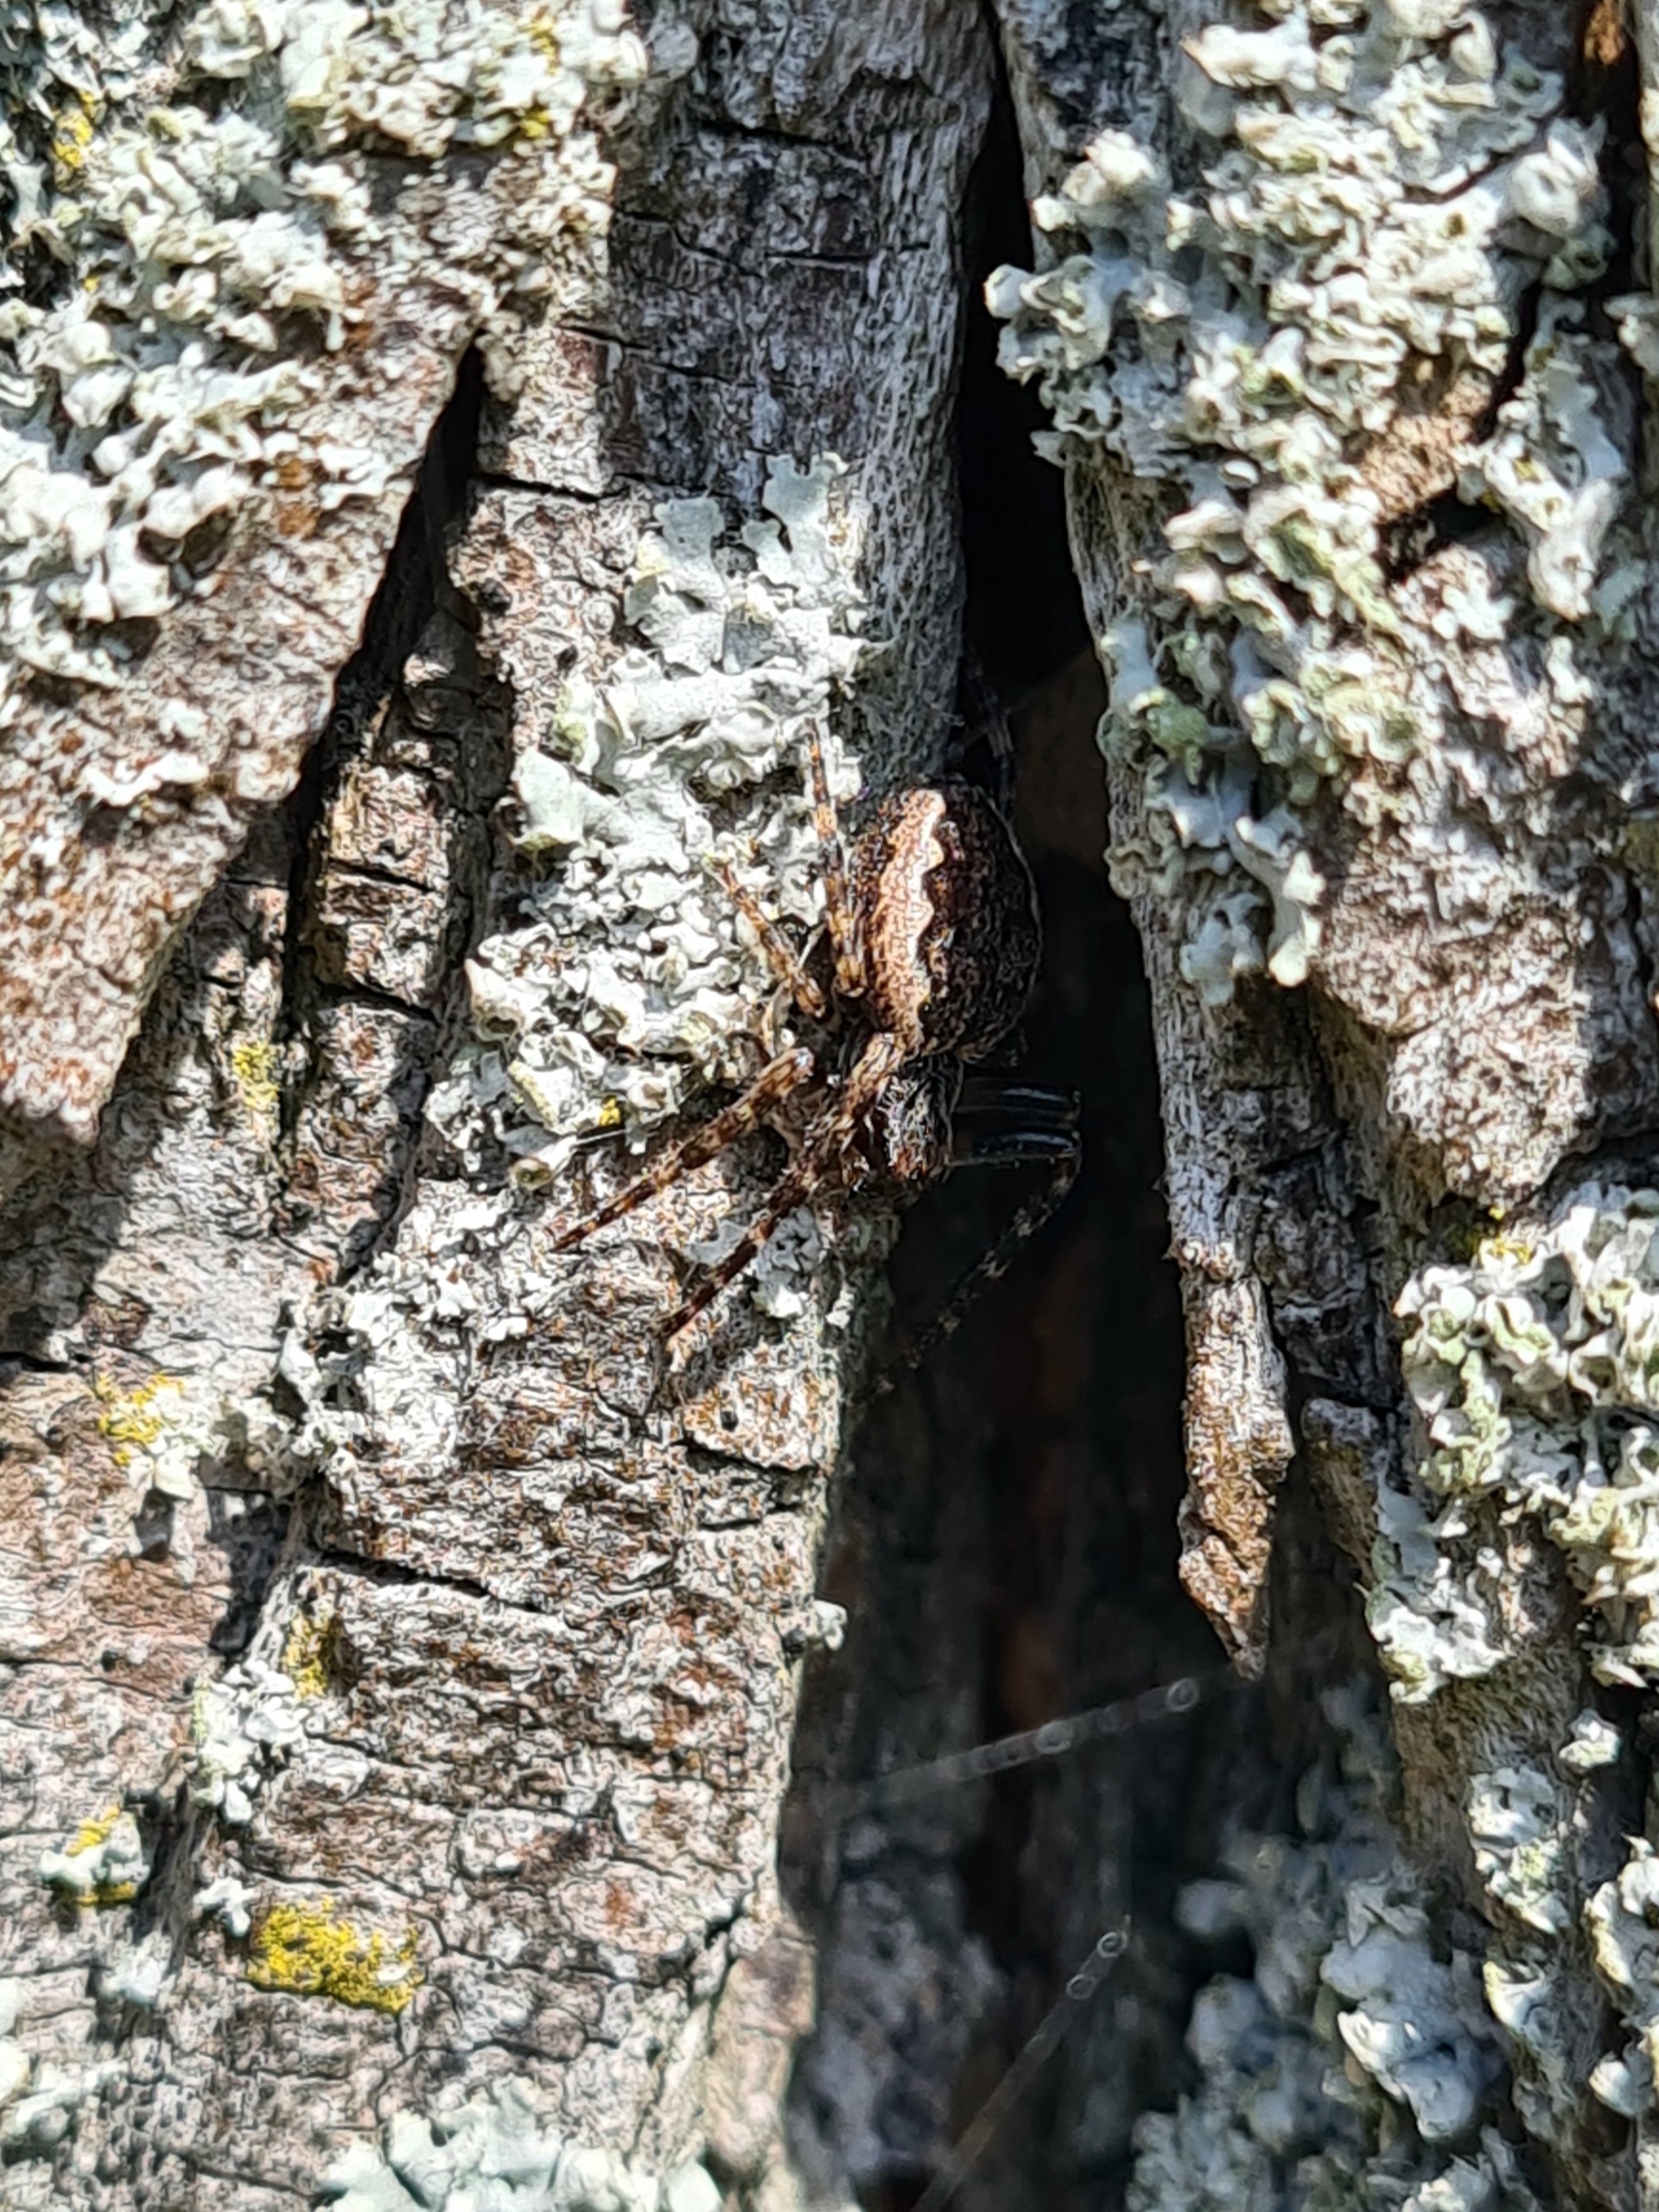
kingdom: Animalia
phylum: Arthropoda
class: Arachnida
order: Araneae
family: Araneidae
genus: Nuctenea
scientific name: Nuctenea umbratica
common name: Flad hjulspinder
